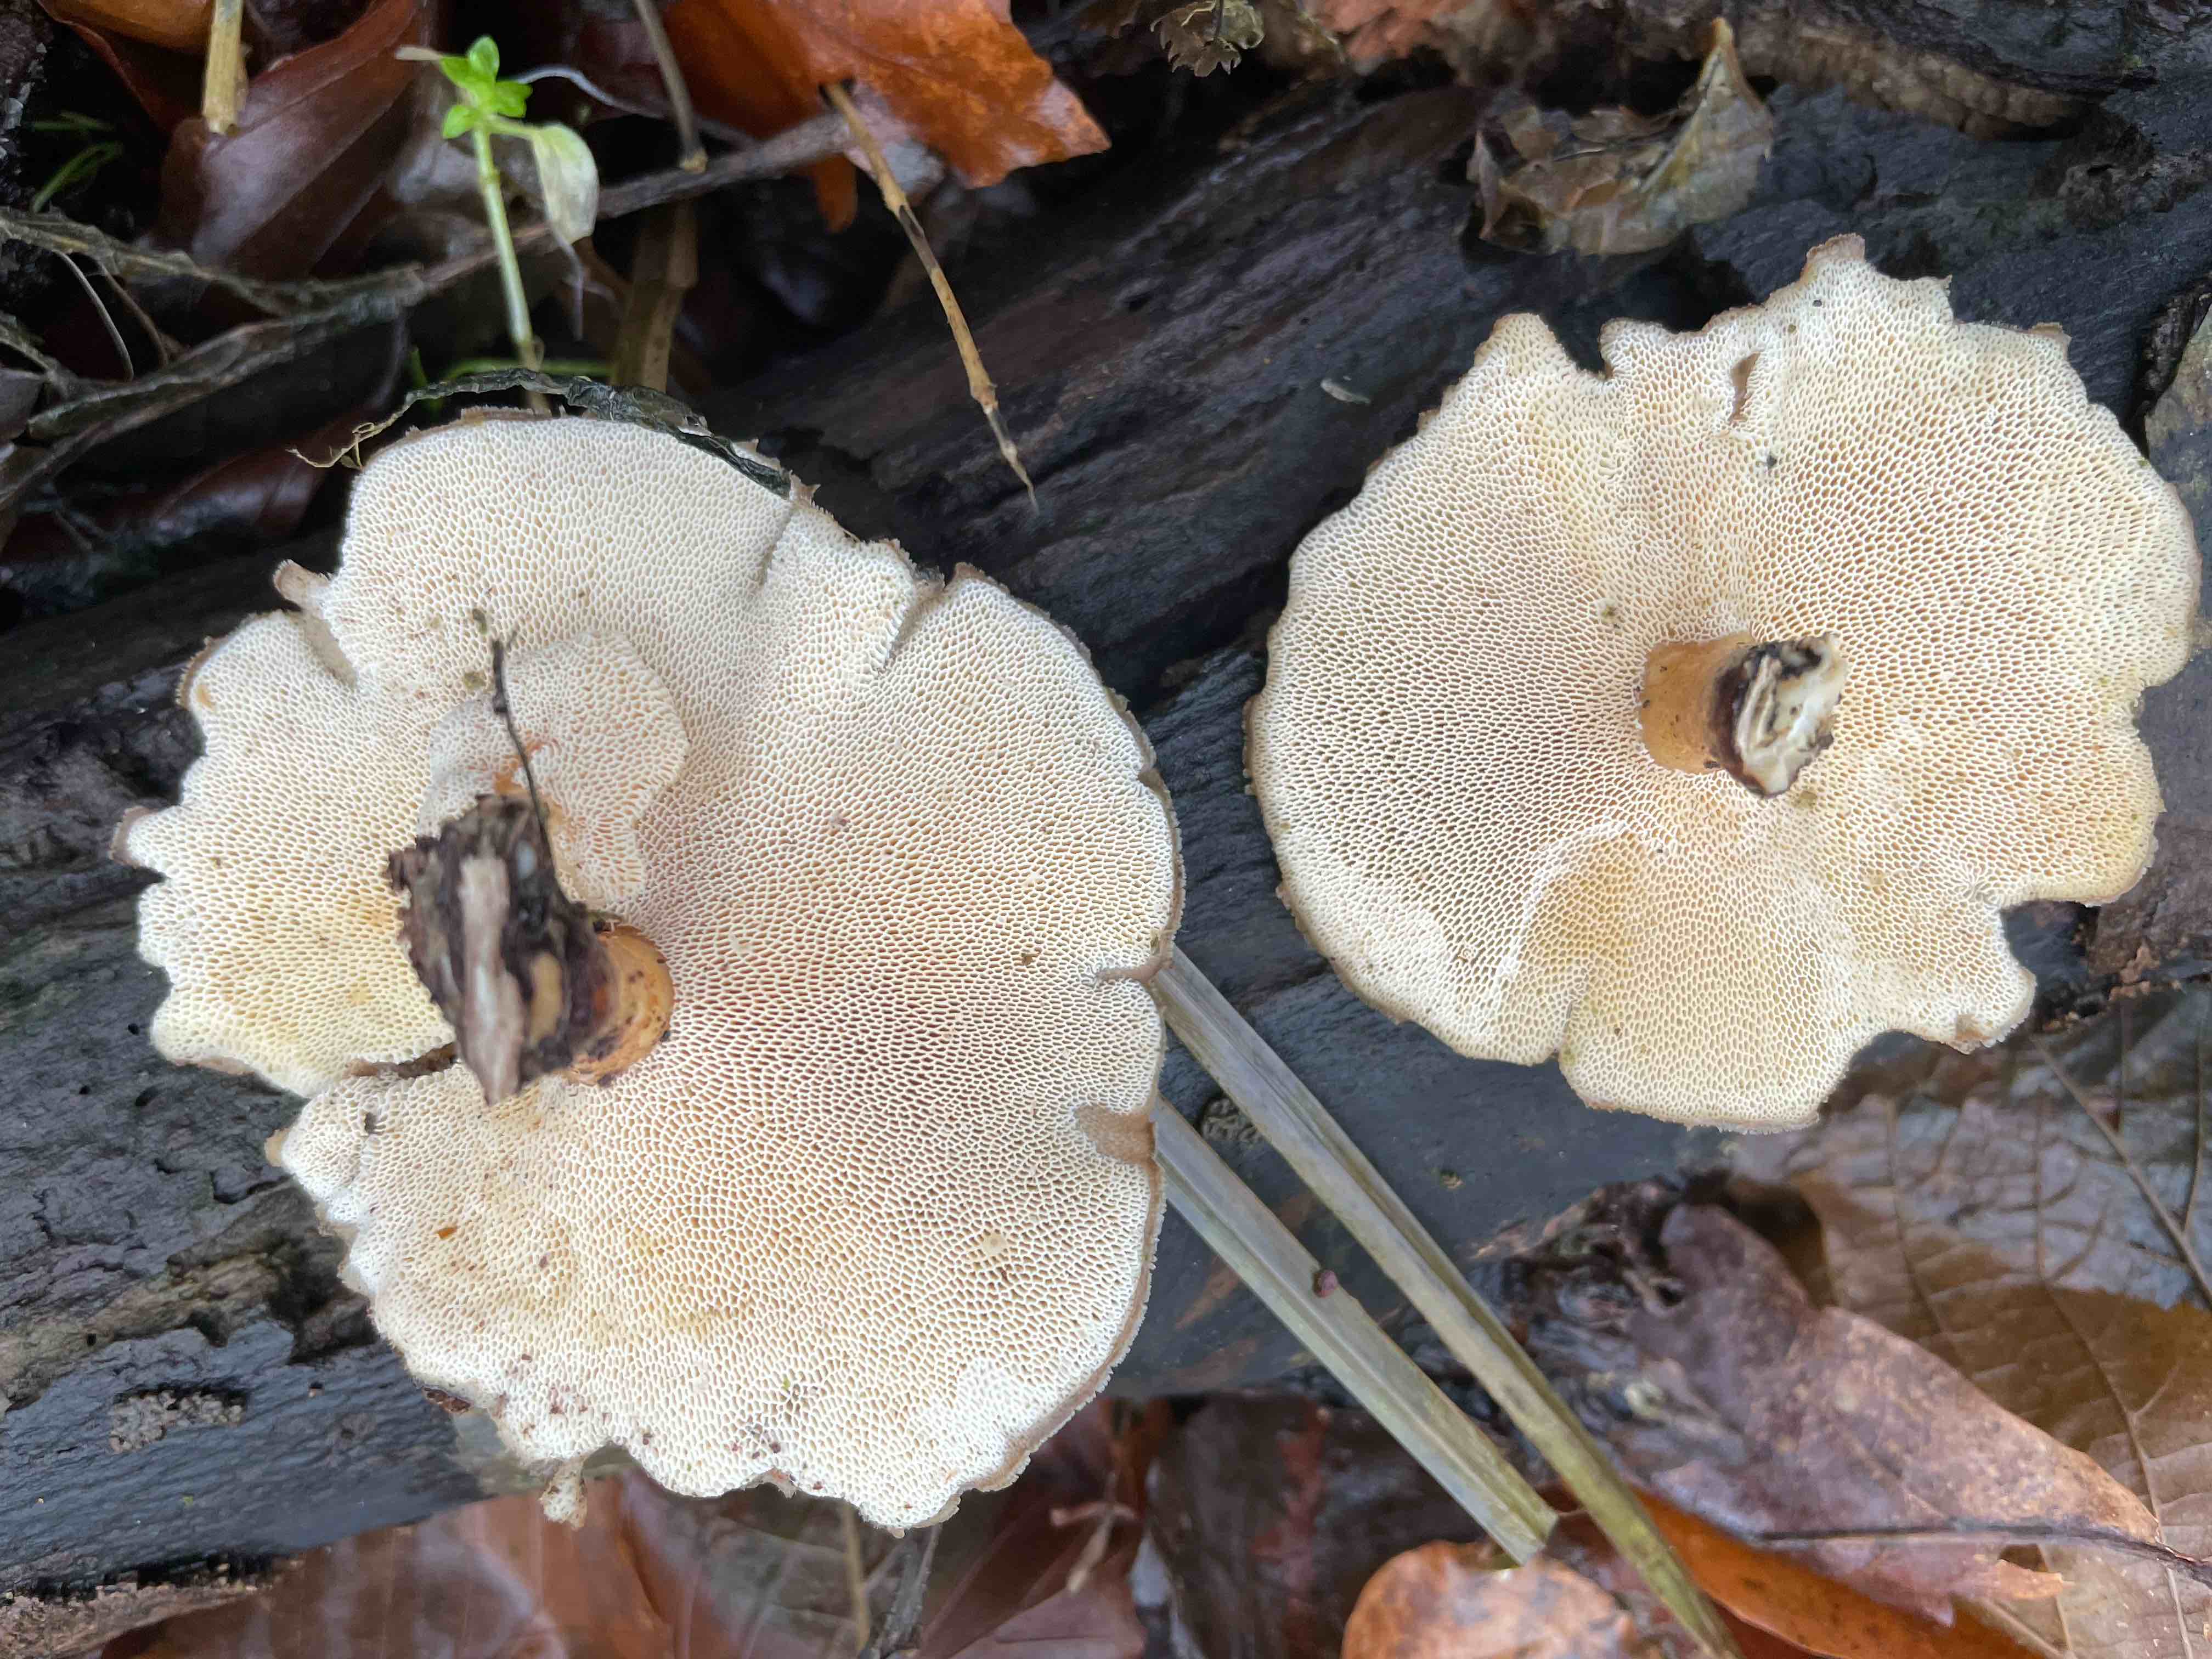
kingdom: Fungi
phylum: Basidiomycota
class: Agaricomycetes
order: Polyporales
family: Polyporaceae
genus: Lentinus
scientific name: Lentinus brumalis
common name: vinter-stilkporesvamp
